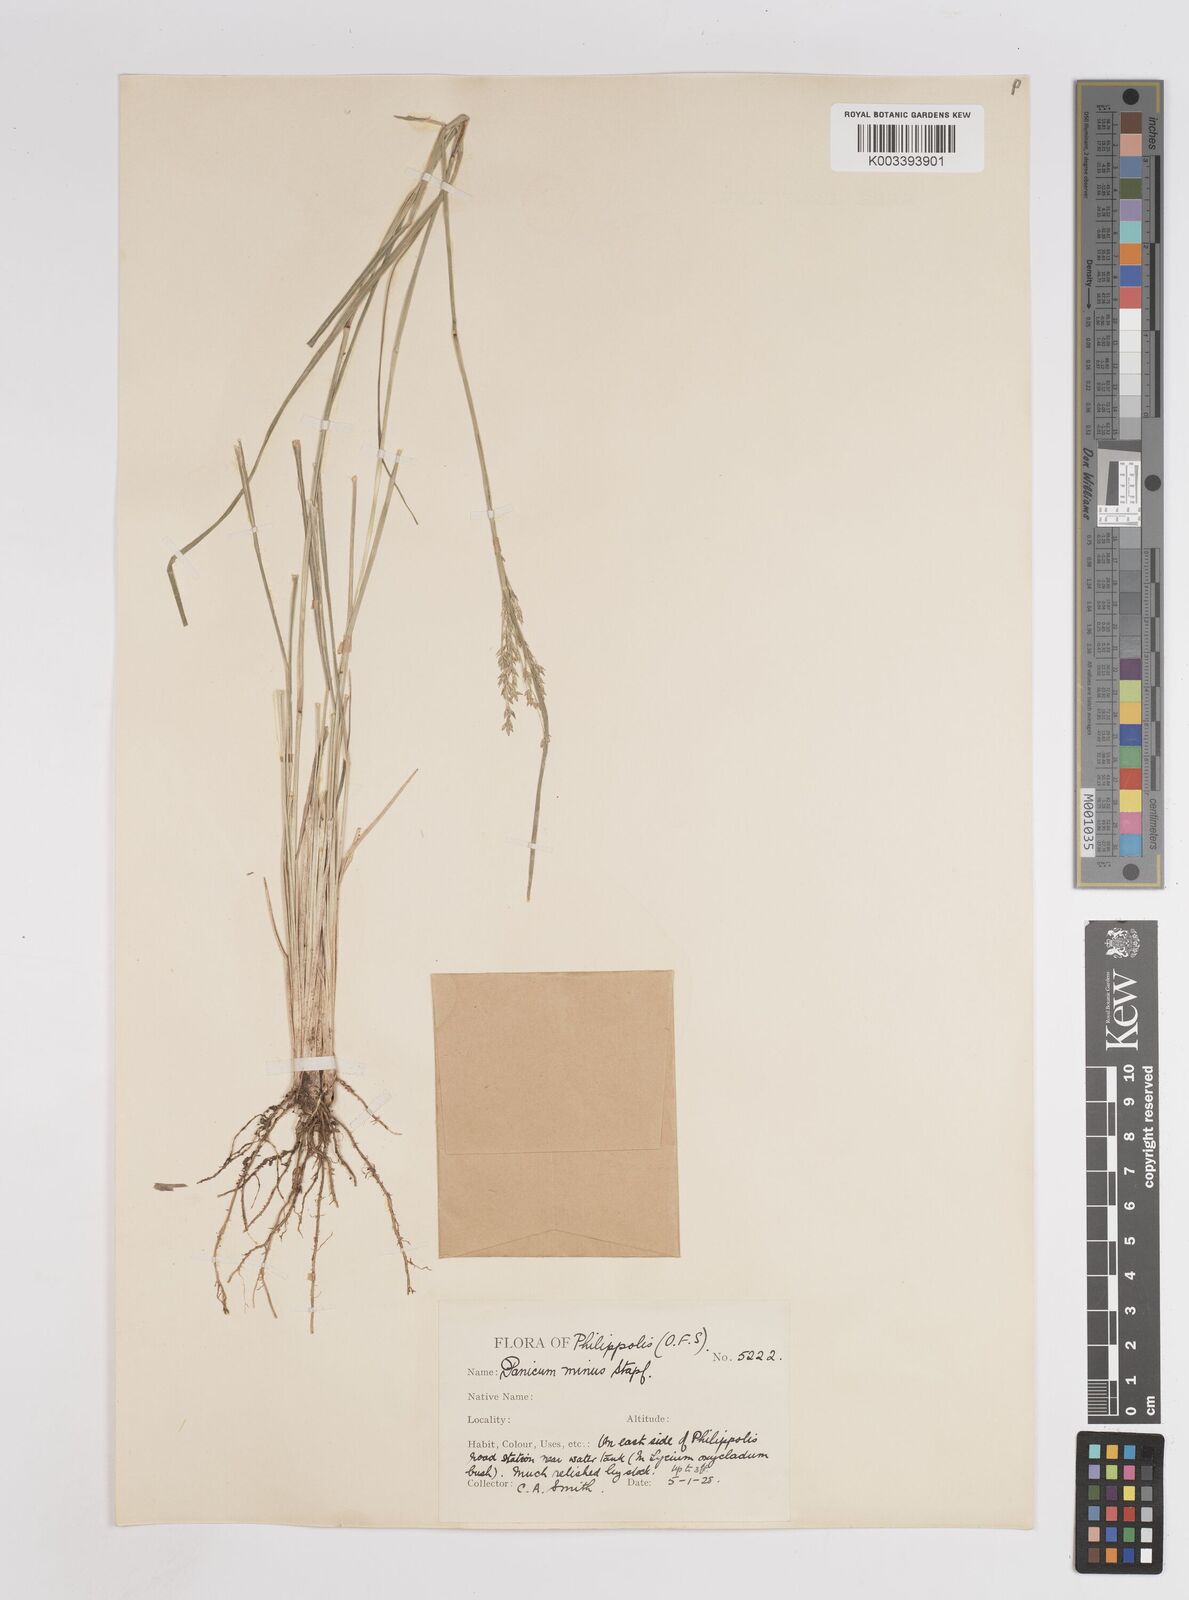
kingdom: Plantae
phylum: Tracheophyta
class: Liliopsida
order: Poales
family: Poaceae
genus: Panicum
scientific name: Panicum stapfianum
